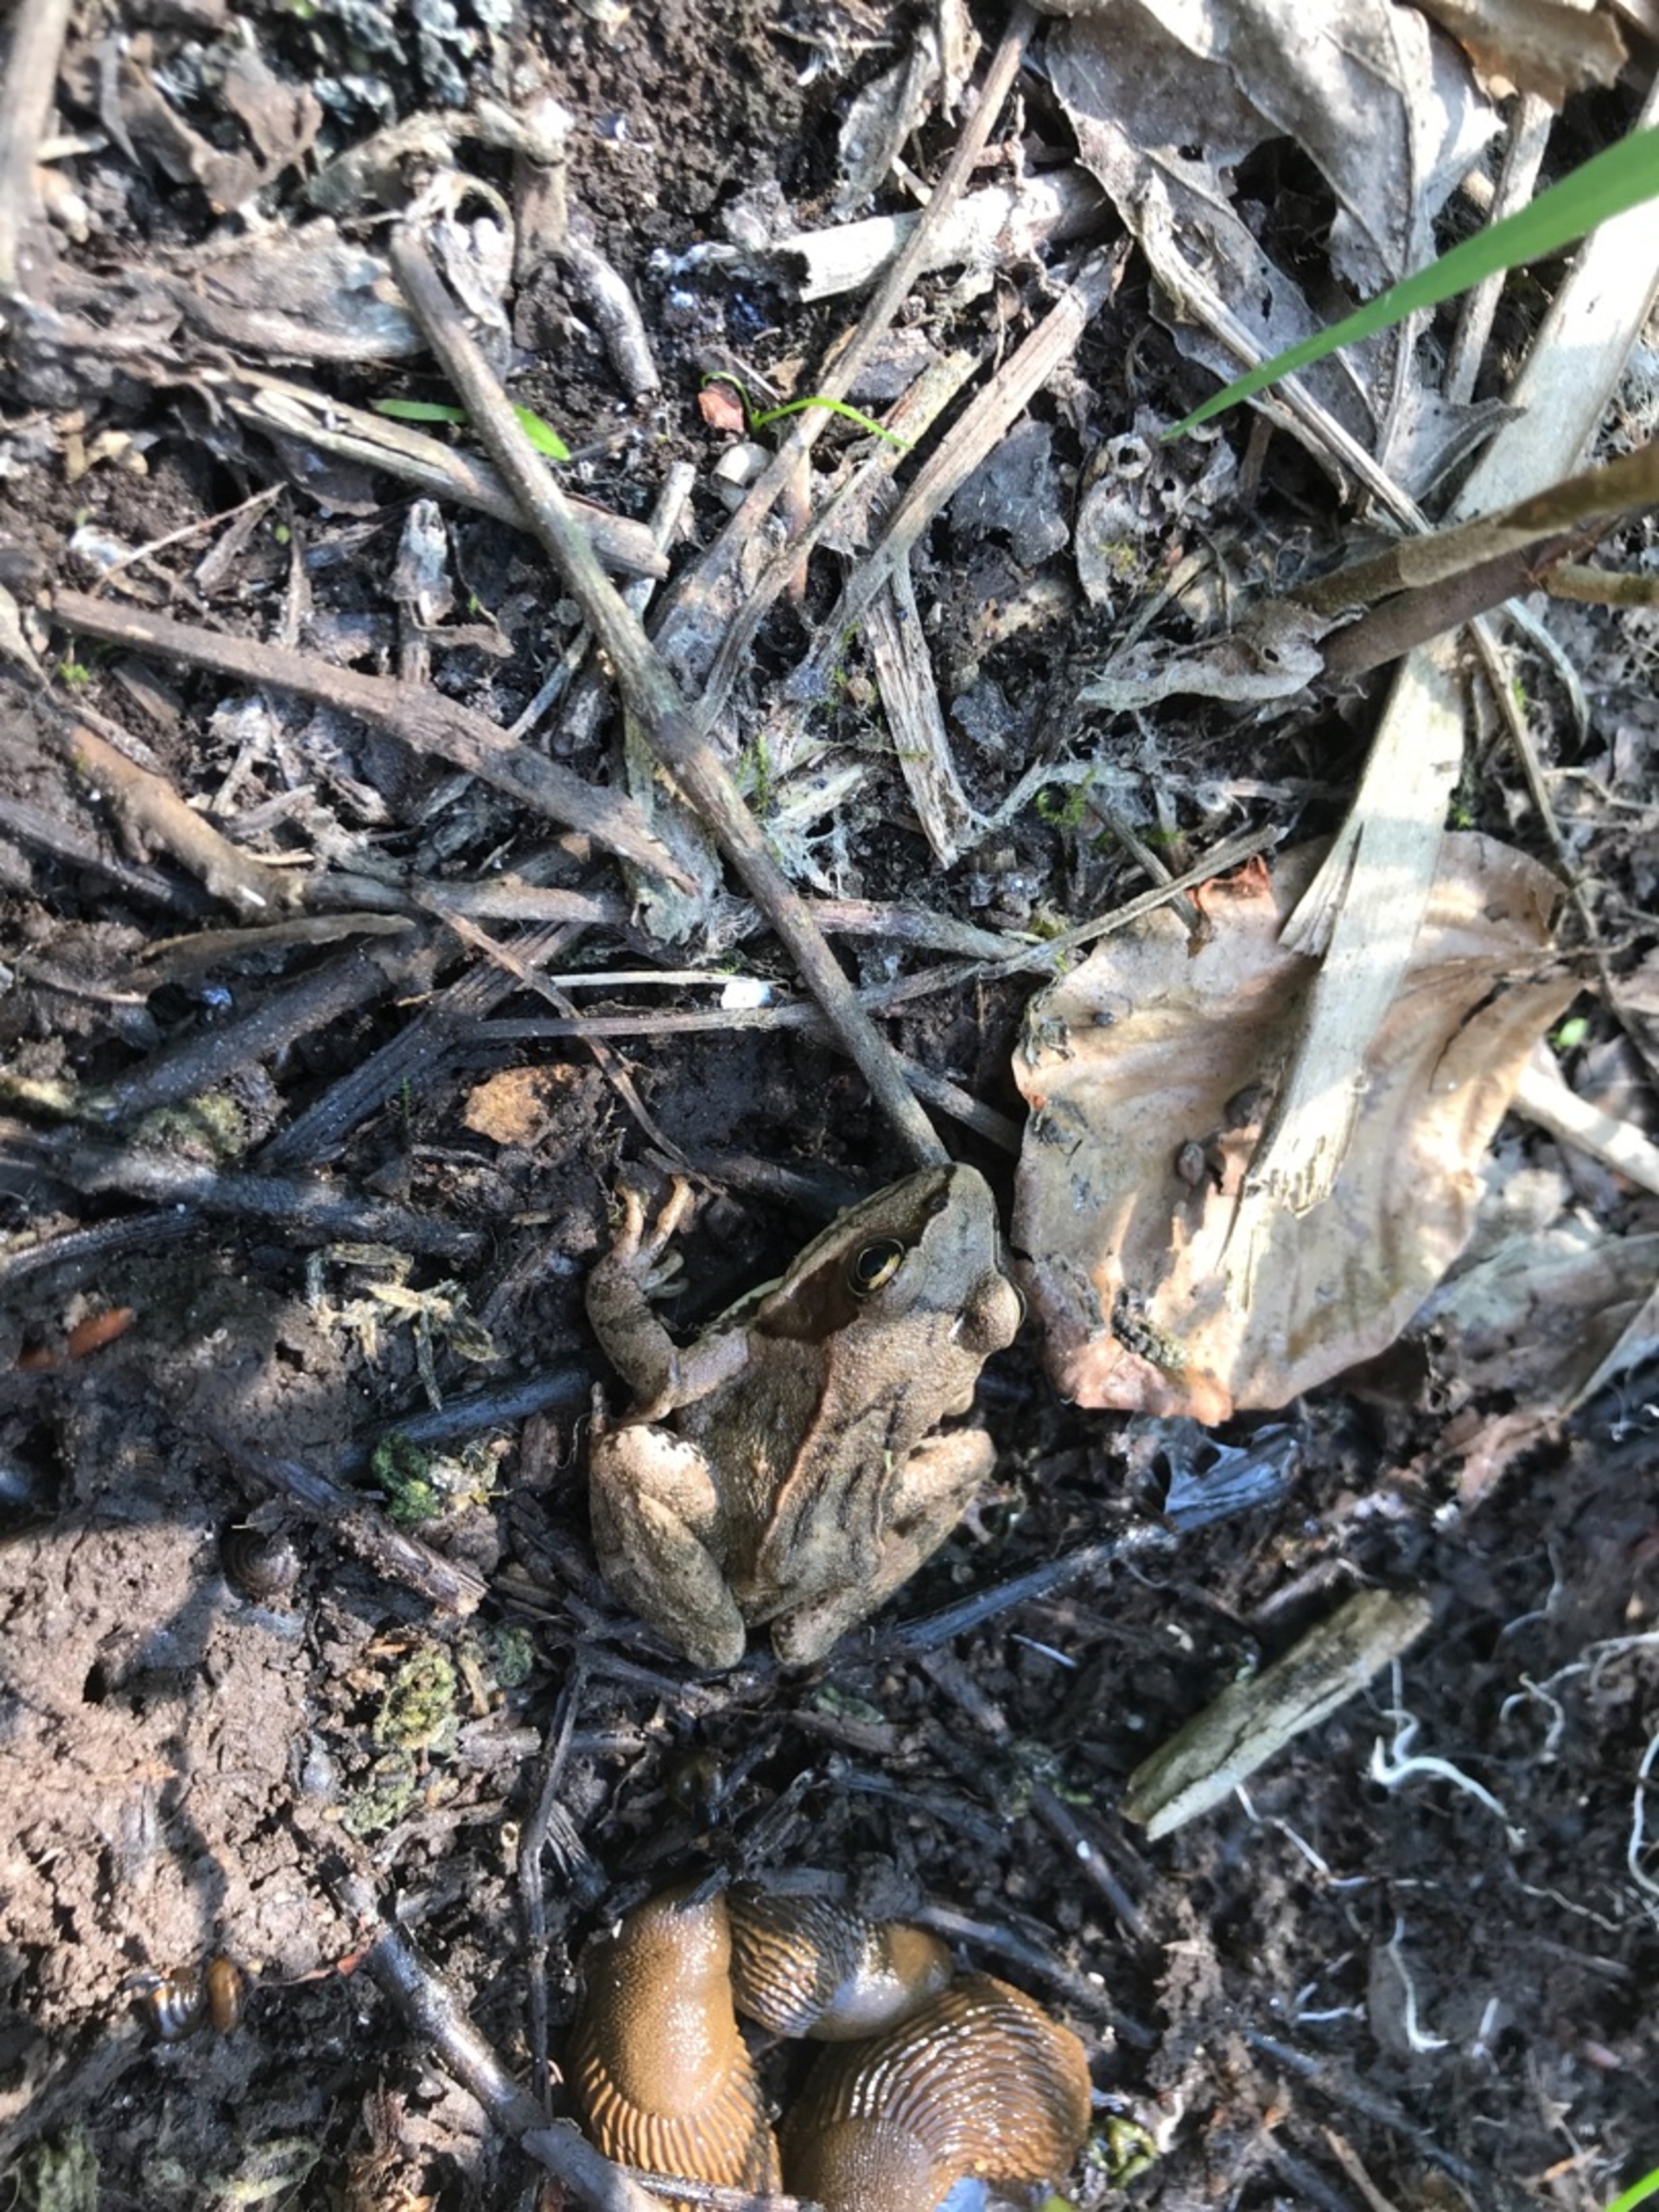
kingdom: Animalia
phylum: Chordata
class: Amphibia
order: Anura
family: Ranidae
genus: Rana
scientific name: Rana temporaria
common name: Butsnudet frø
